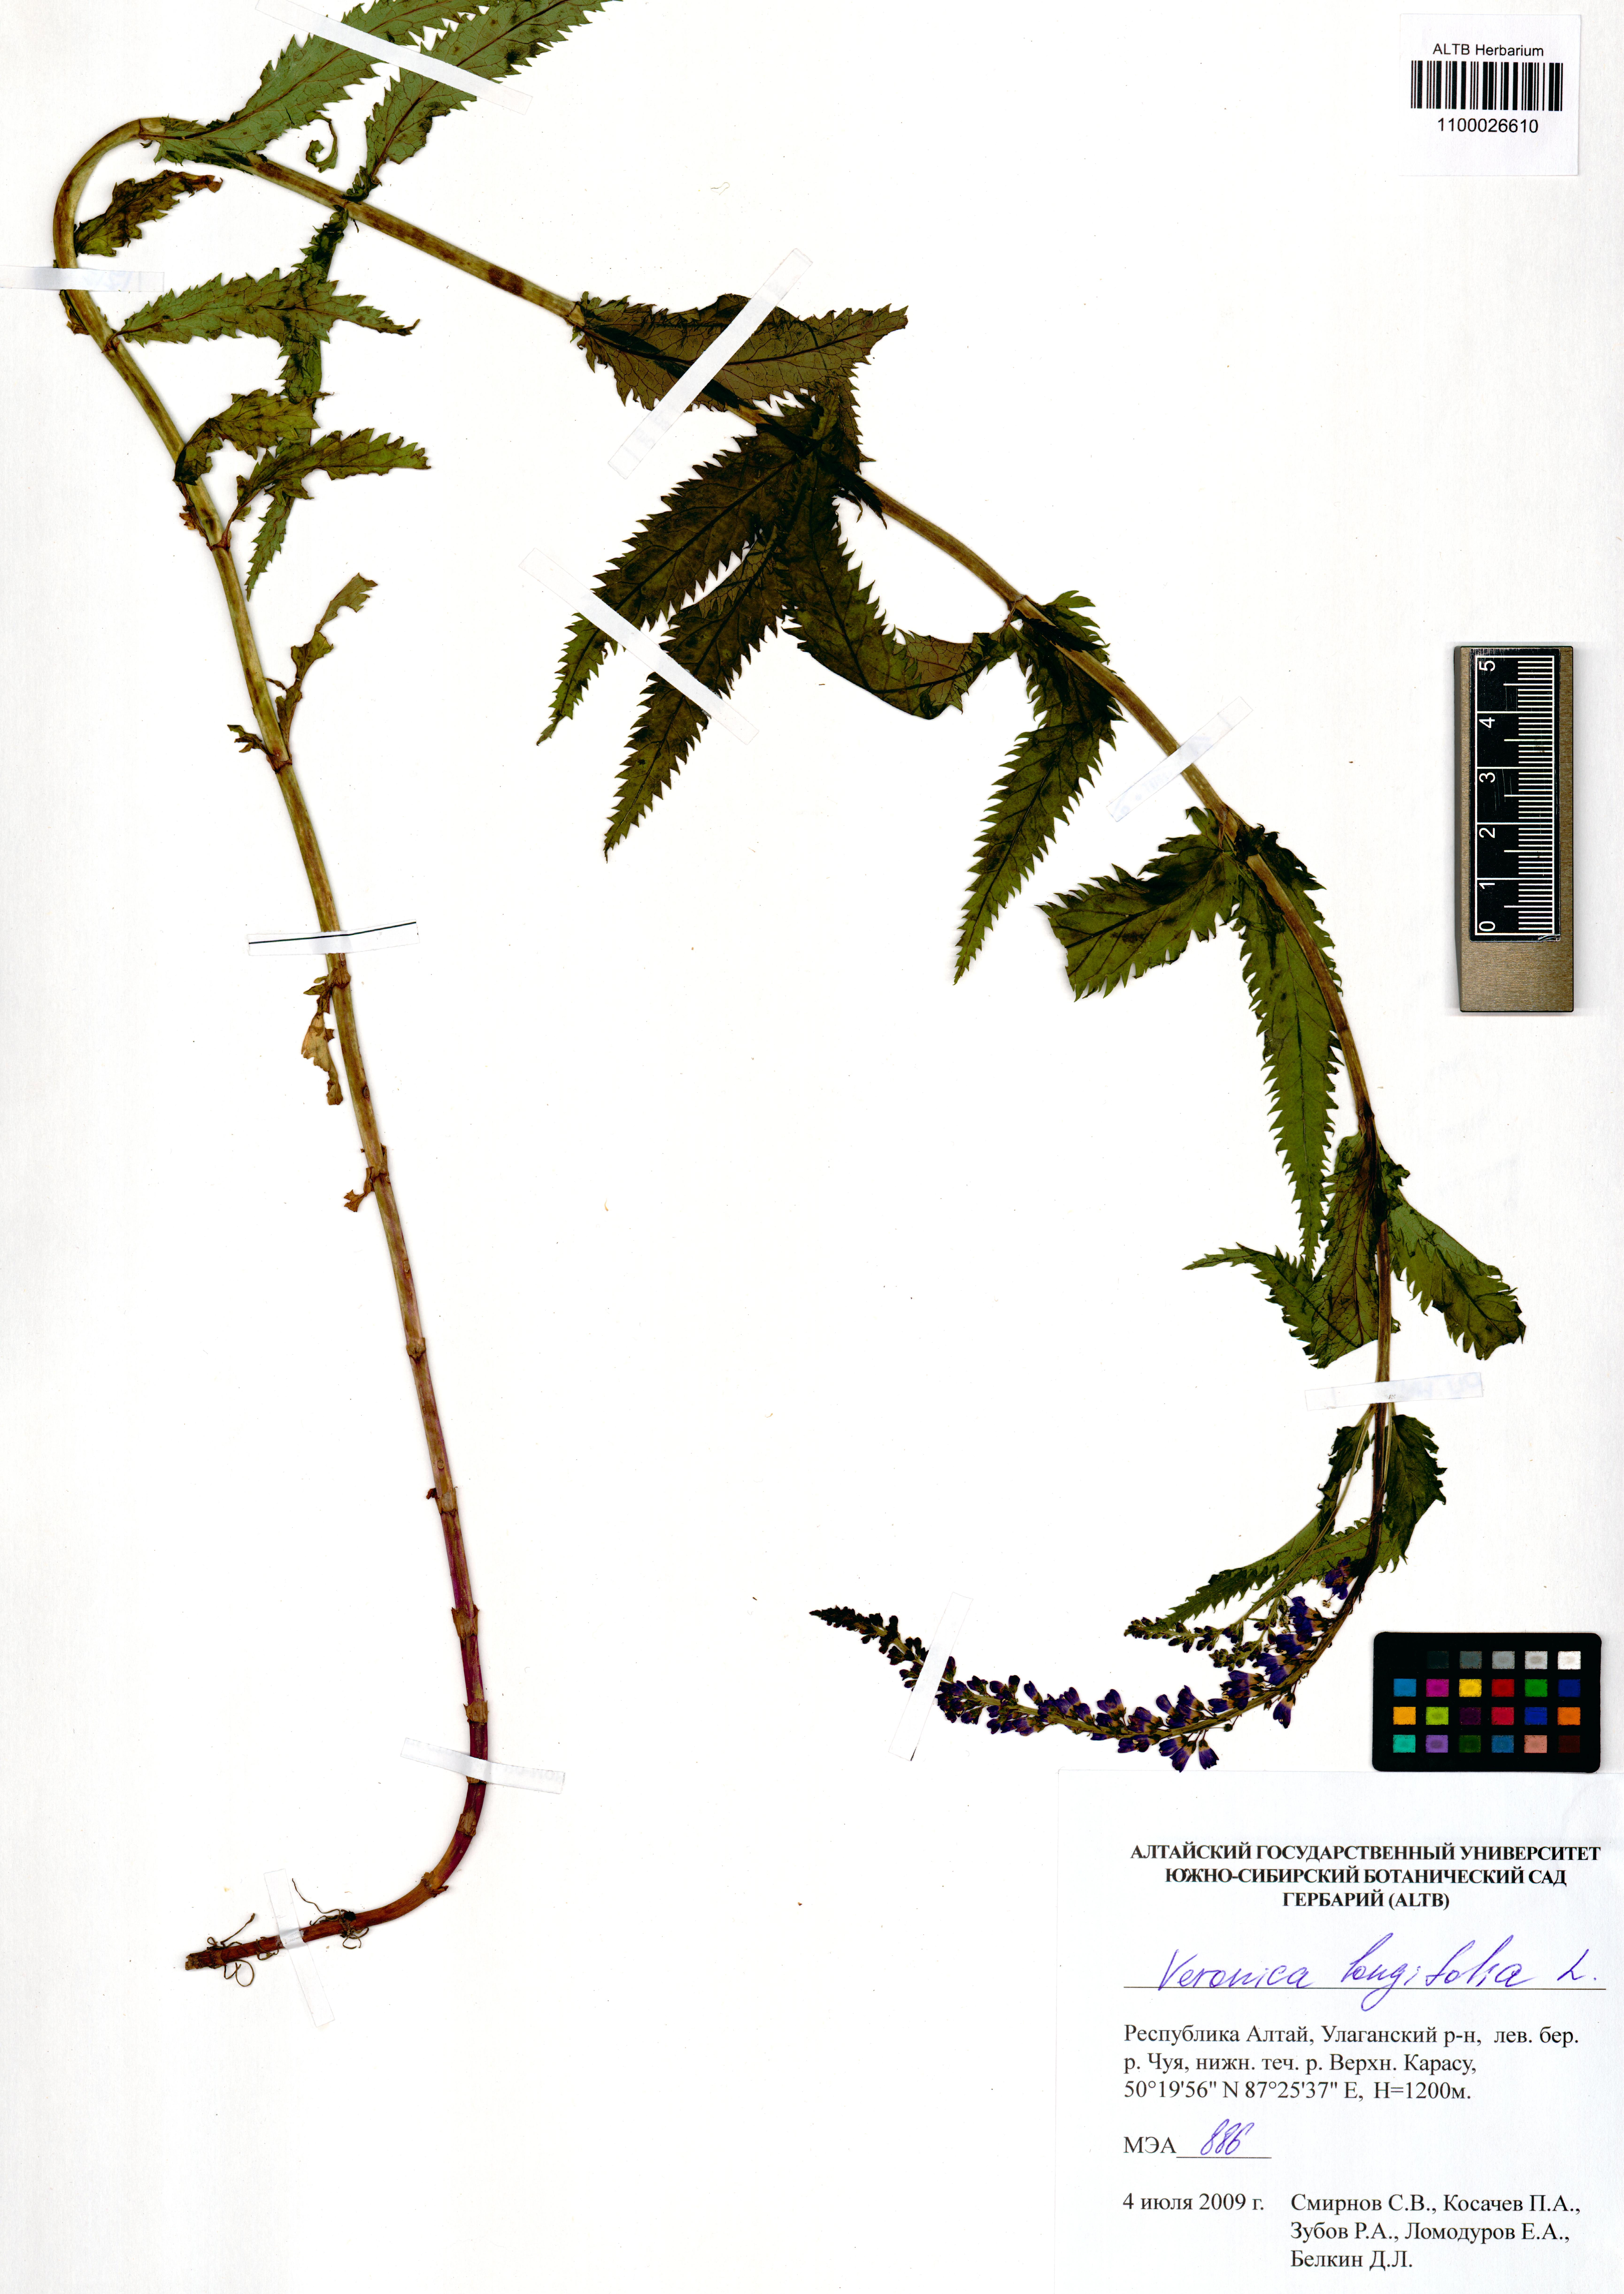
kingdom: Plantae
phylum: Tracheophyta
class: Magnoliopsida
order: Lamiales
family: Plantaginaceae
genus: Veronica
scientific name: Veronica longifolia
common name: Garden speedwell
